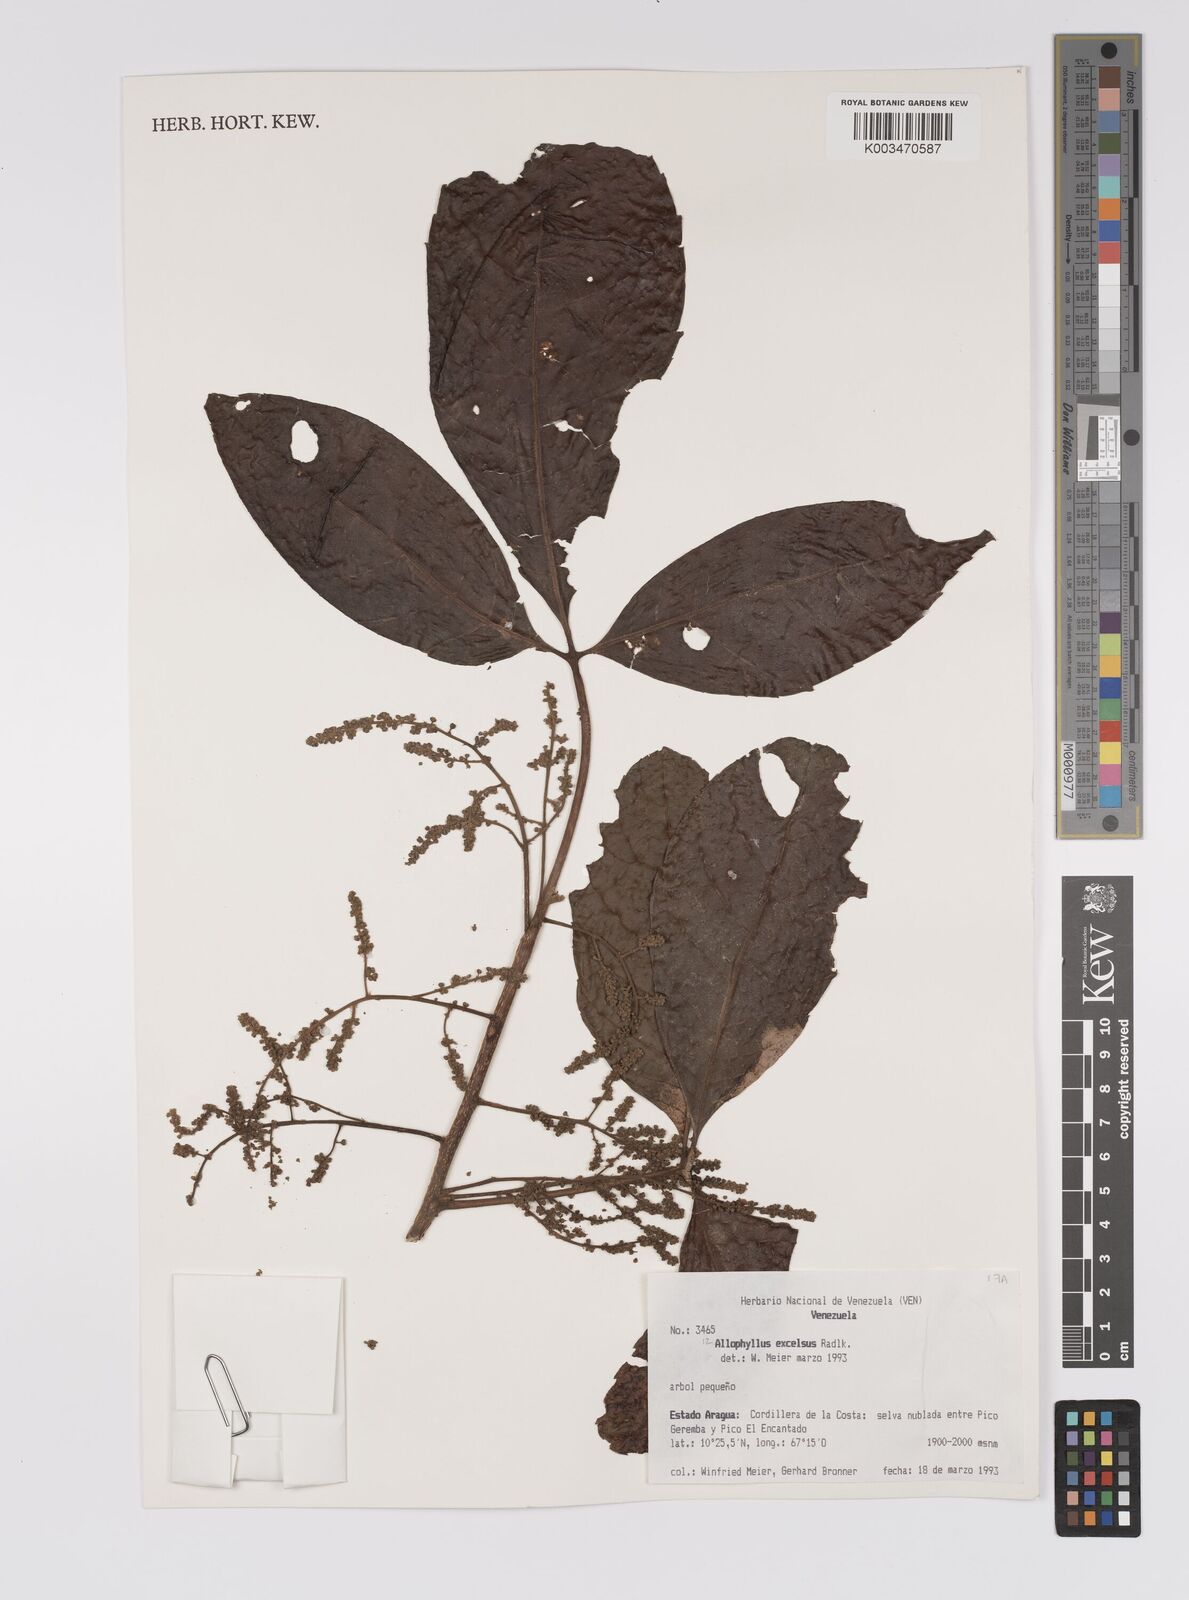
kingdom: Plantae
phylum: Tracheophyta
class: Magnoliopsida
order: Sapindales
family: Sapindaceae
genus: Allophylus
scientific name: Allophylus excelsus
